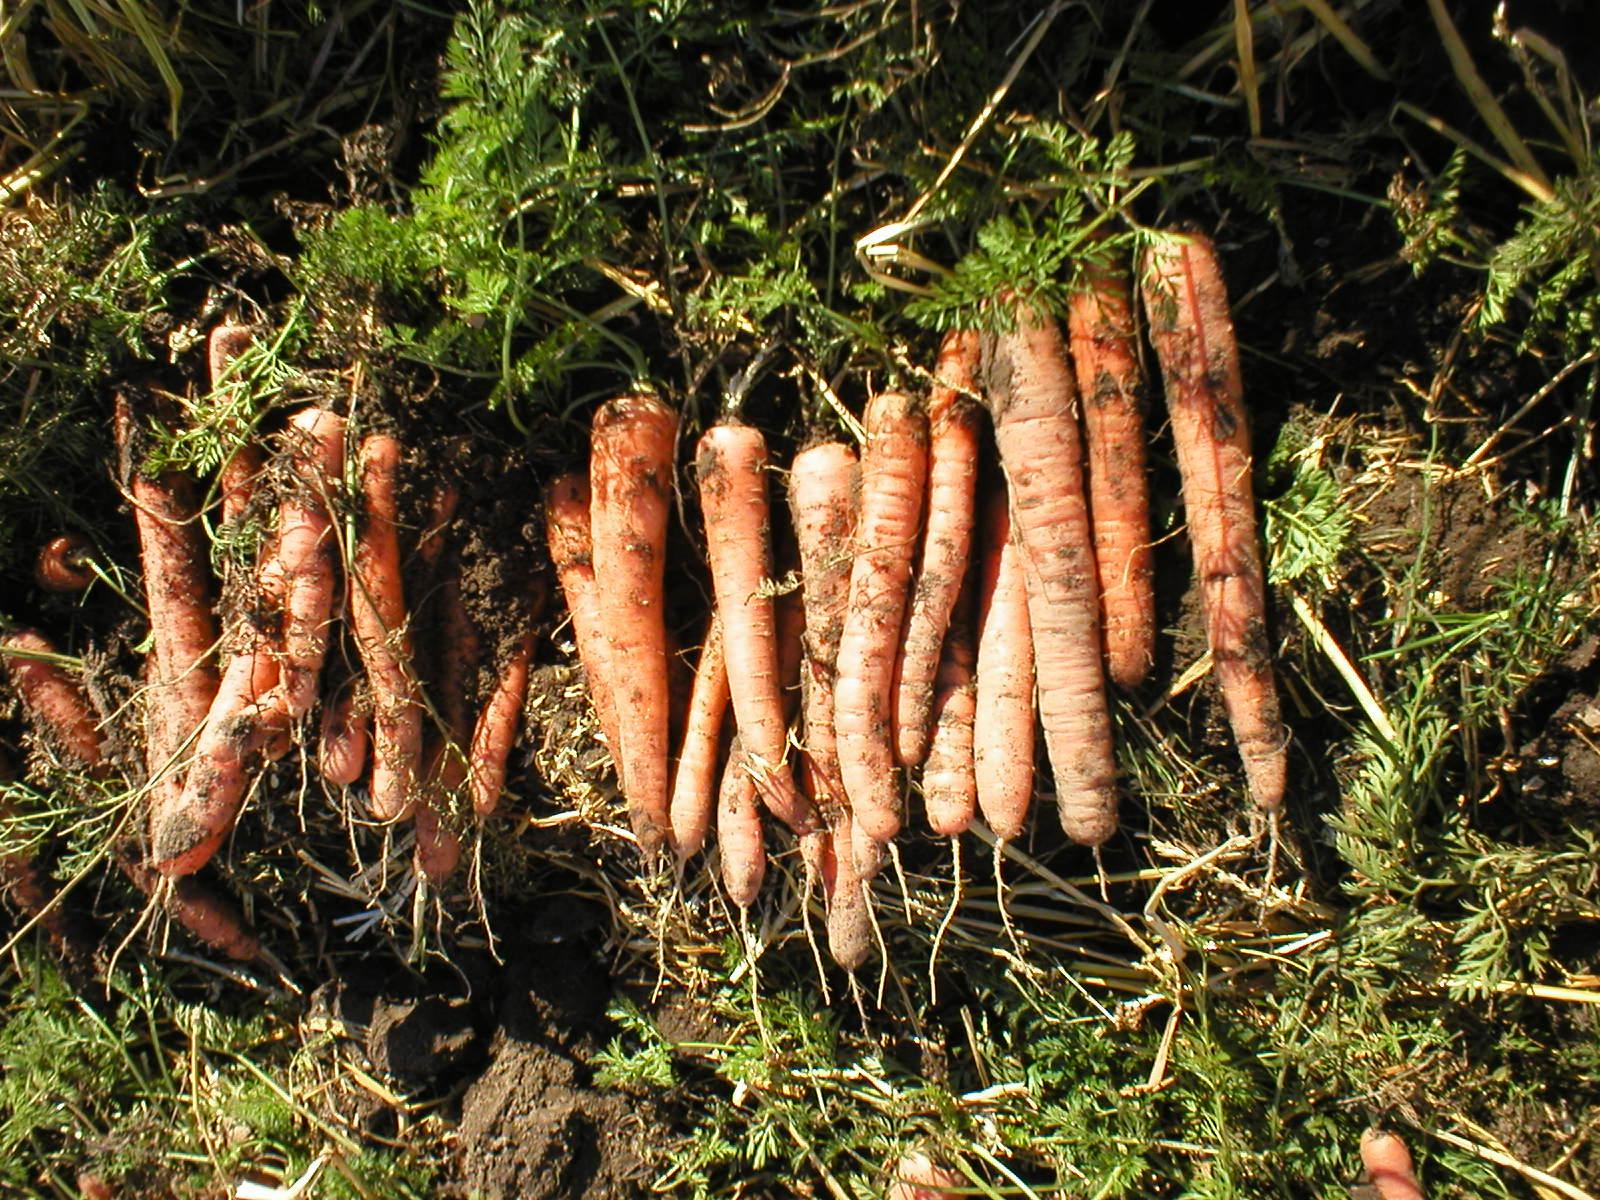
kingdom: Plantae
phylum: Tracheophyta
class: Magnoliopsida
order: Apiales
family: Apiaceae
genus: Daucus
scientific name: Daucus carota
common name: Wild carrot
